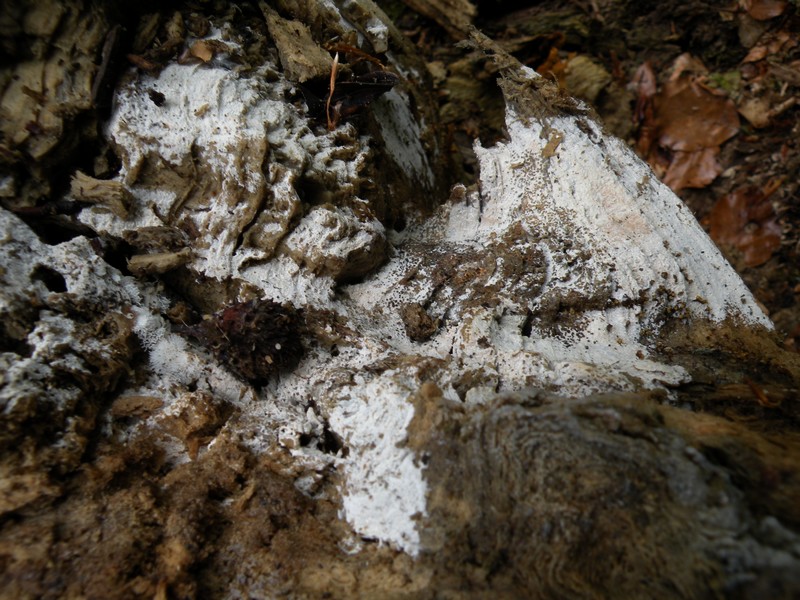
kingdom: Fungi
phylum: Basidiomycota
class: Agaricomycetes
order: Trechisporales
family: Hydnodontaceae
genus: Subulicystidium
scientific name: Subulicystidium longisporum
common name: almindelig pigtrådshinde
